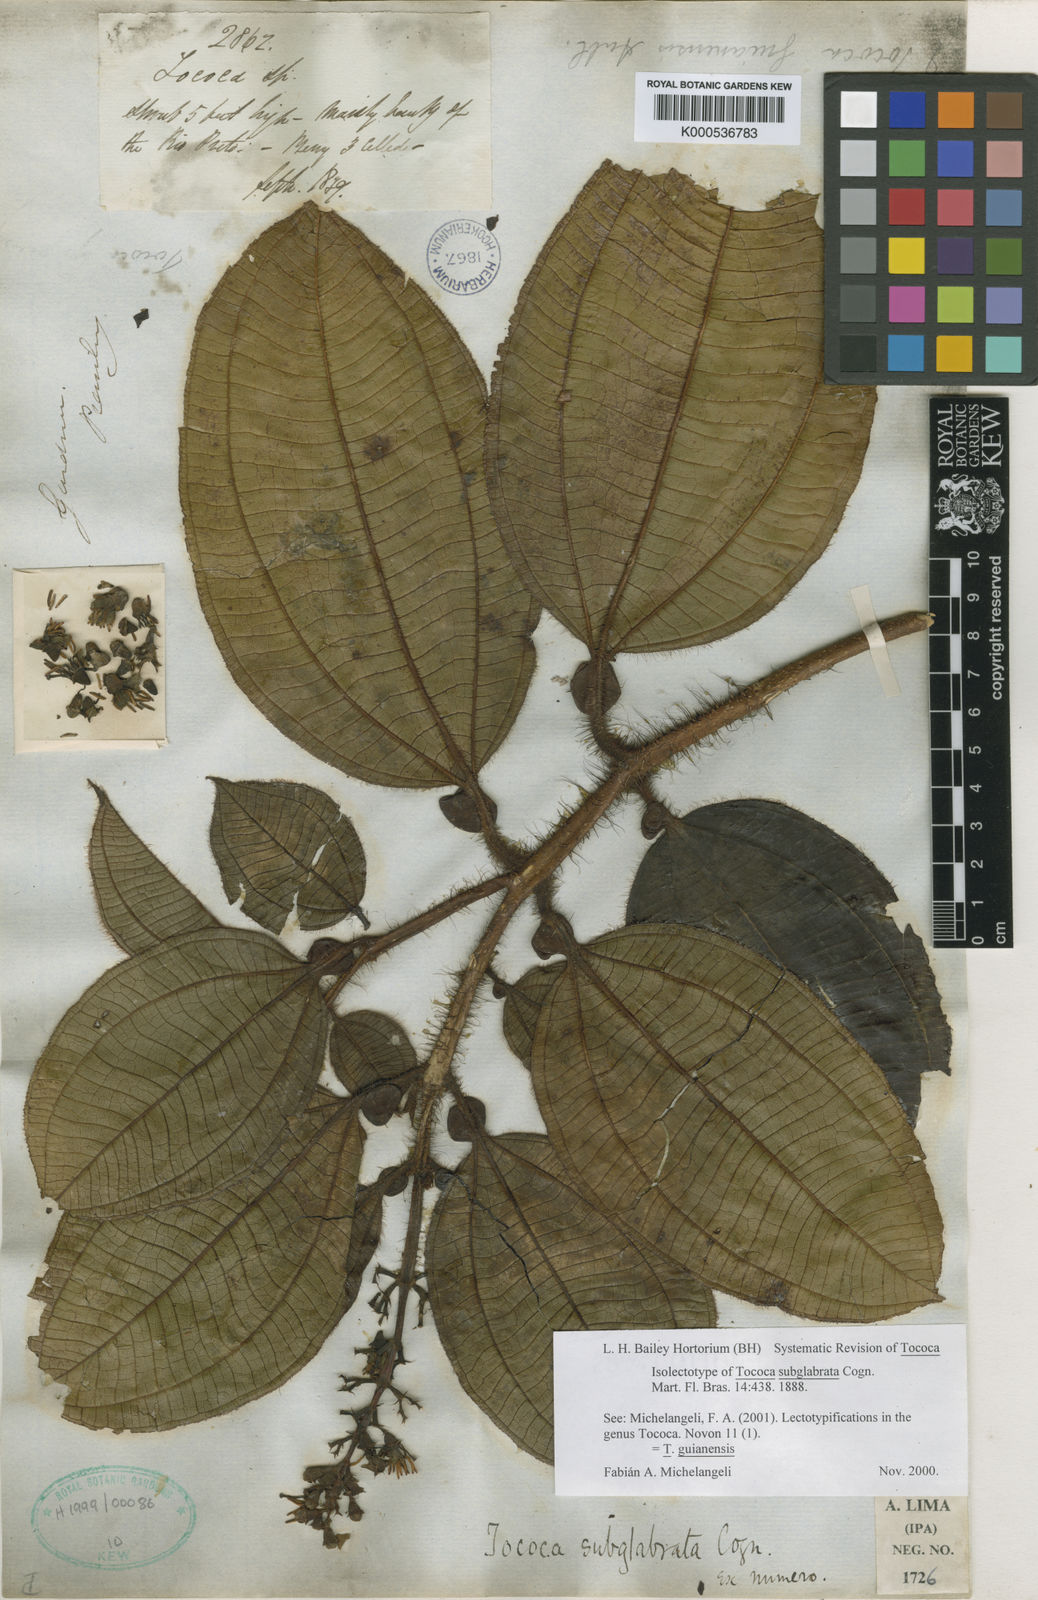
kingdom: Plantae
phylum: Tracheophyta
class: Magnoliopsida
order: Myrtales
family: Melastomataceae
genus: Miconia
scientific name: Miconia tococa
